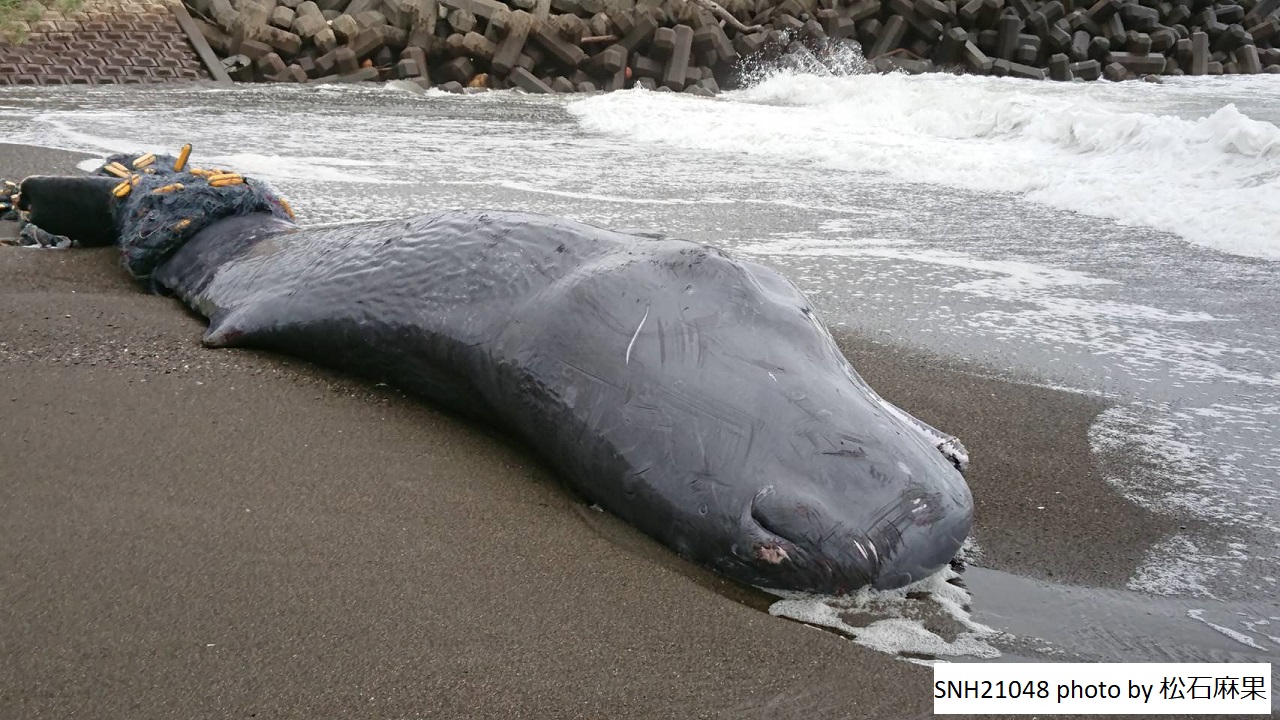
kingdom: Animalia
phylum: Chordata
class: Mammalia
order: Cetacea
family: Physeteridae
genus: Physeter
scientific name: Physeter macrocephalus
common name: Sperm whale
